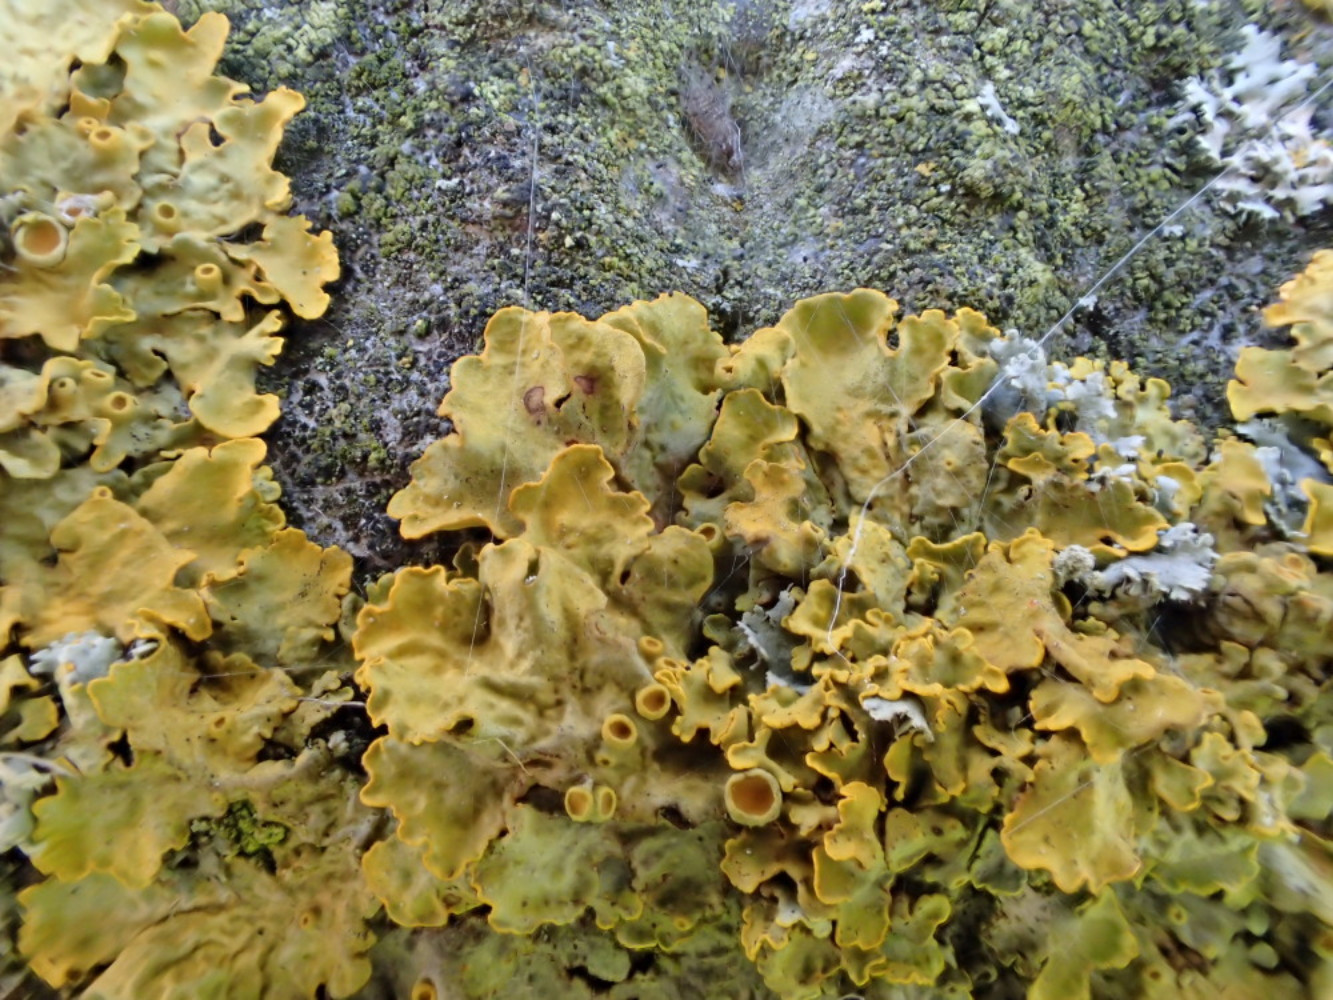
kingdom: Fungi
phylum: Ascomycota
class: Lecanoromycetes
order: Teloschistales
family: Teloschistaceae
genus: Xanthoria
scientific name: Xanthoria parietina
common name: almindelig væggelav
